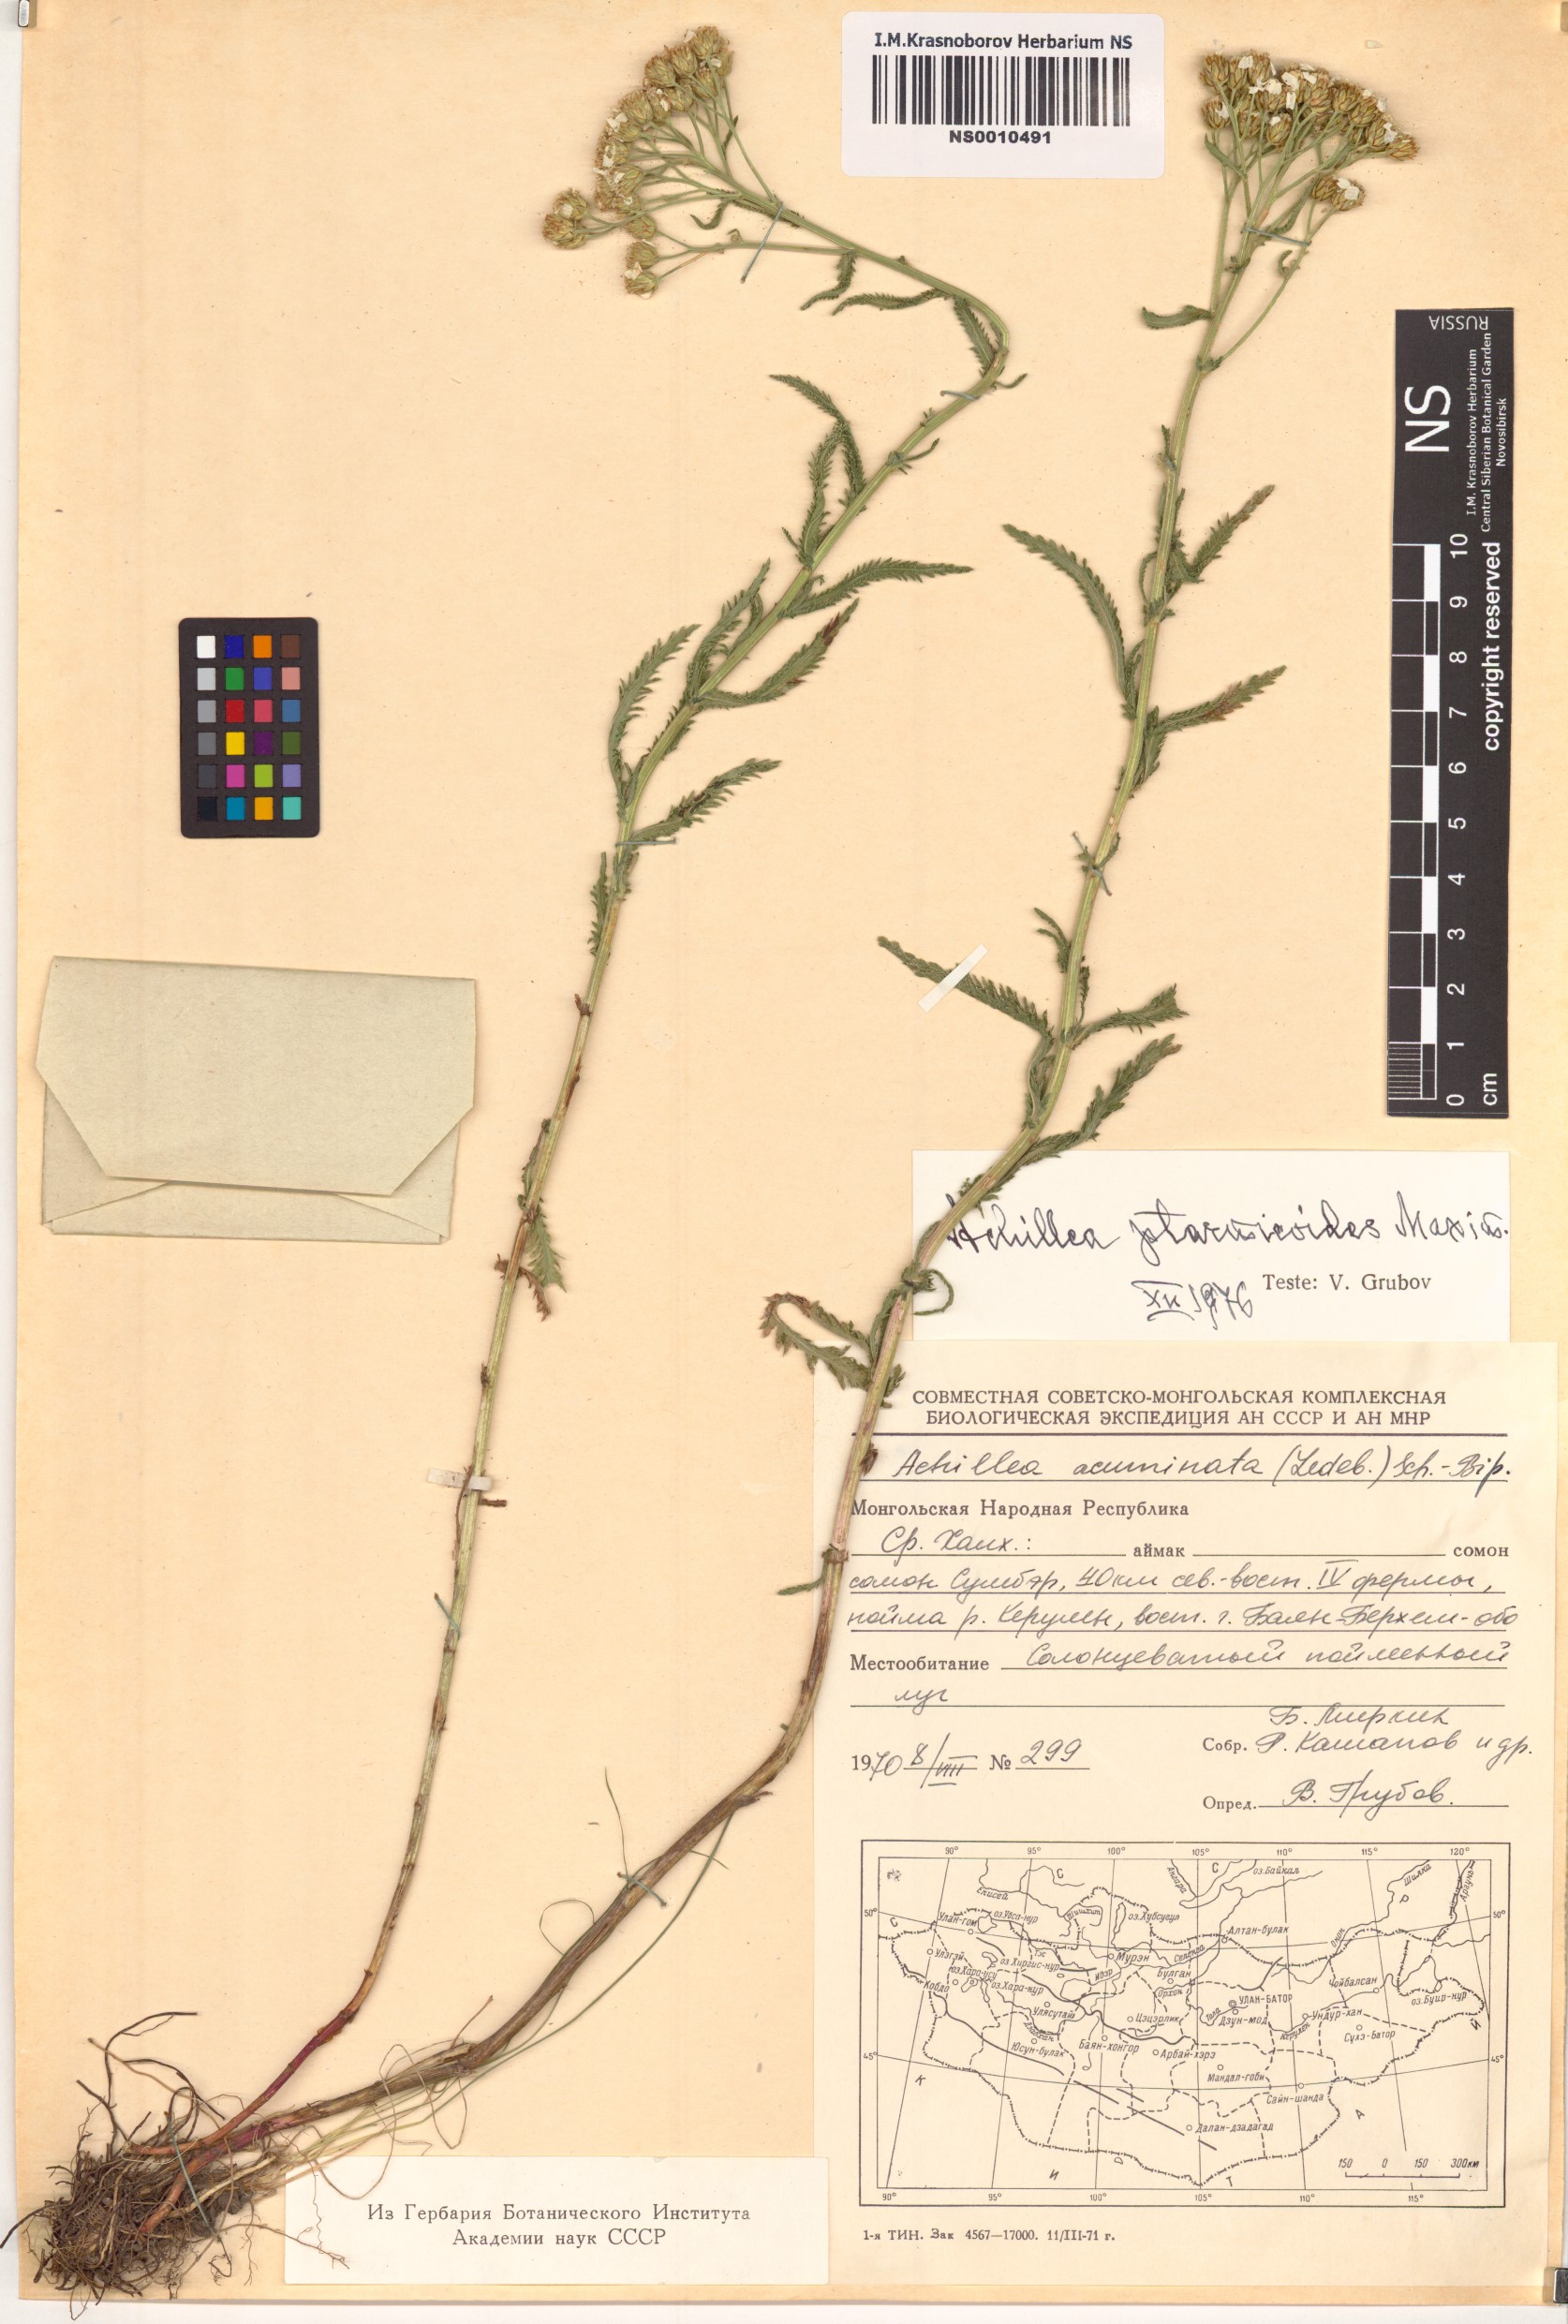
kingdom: Plantae
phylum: Tracheophyta
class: Magnoliopsida
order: Asterales
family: Asteraceae
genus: Achillea
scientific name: Achillea ptarmicoides
